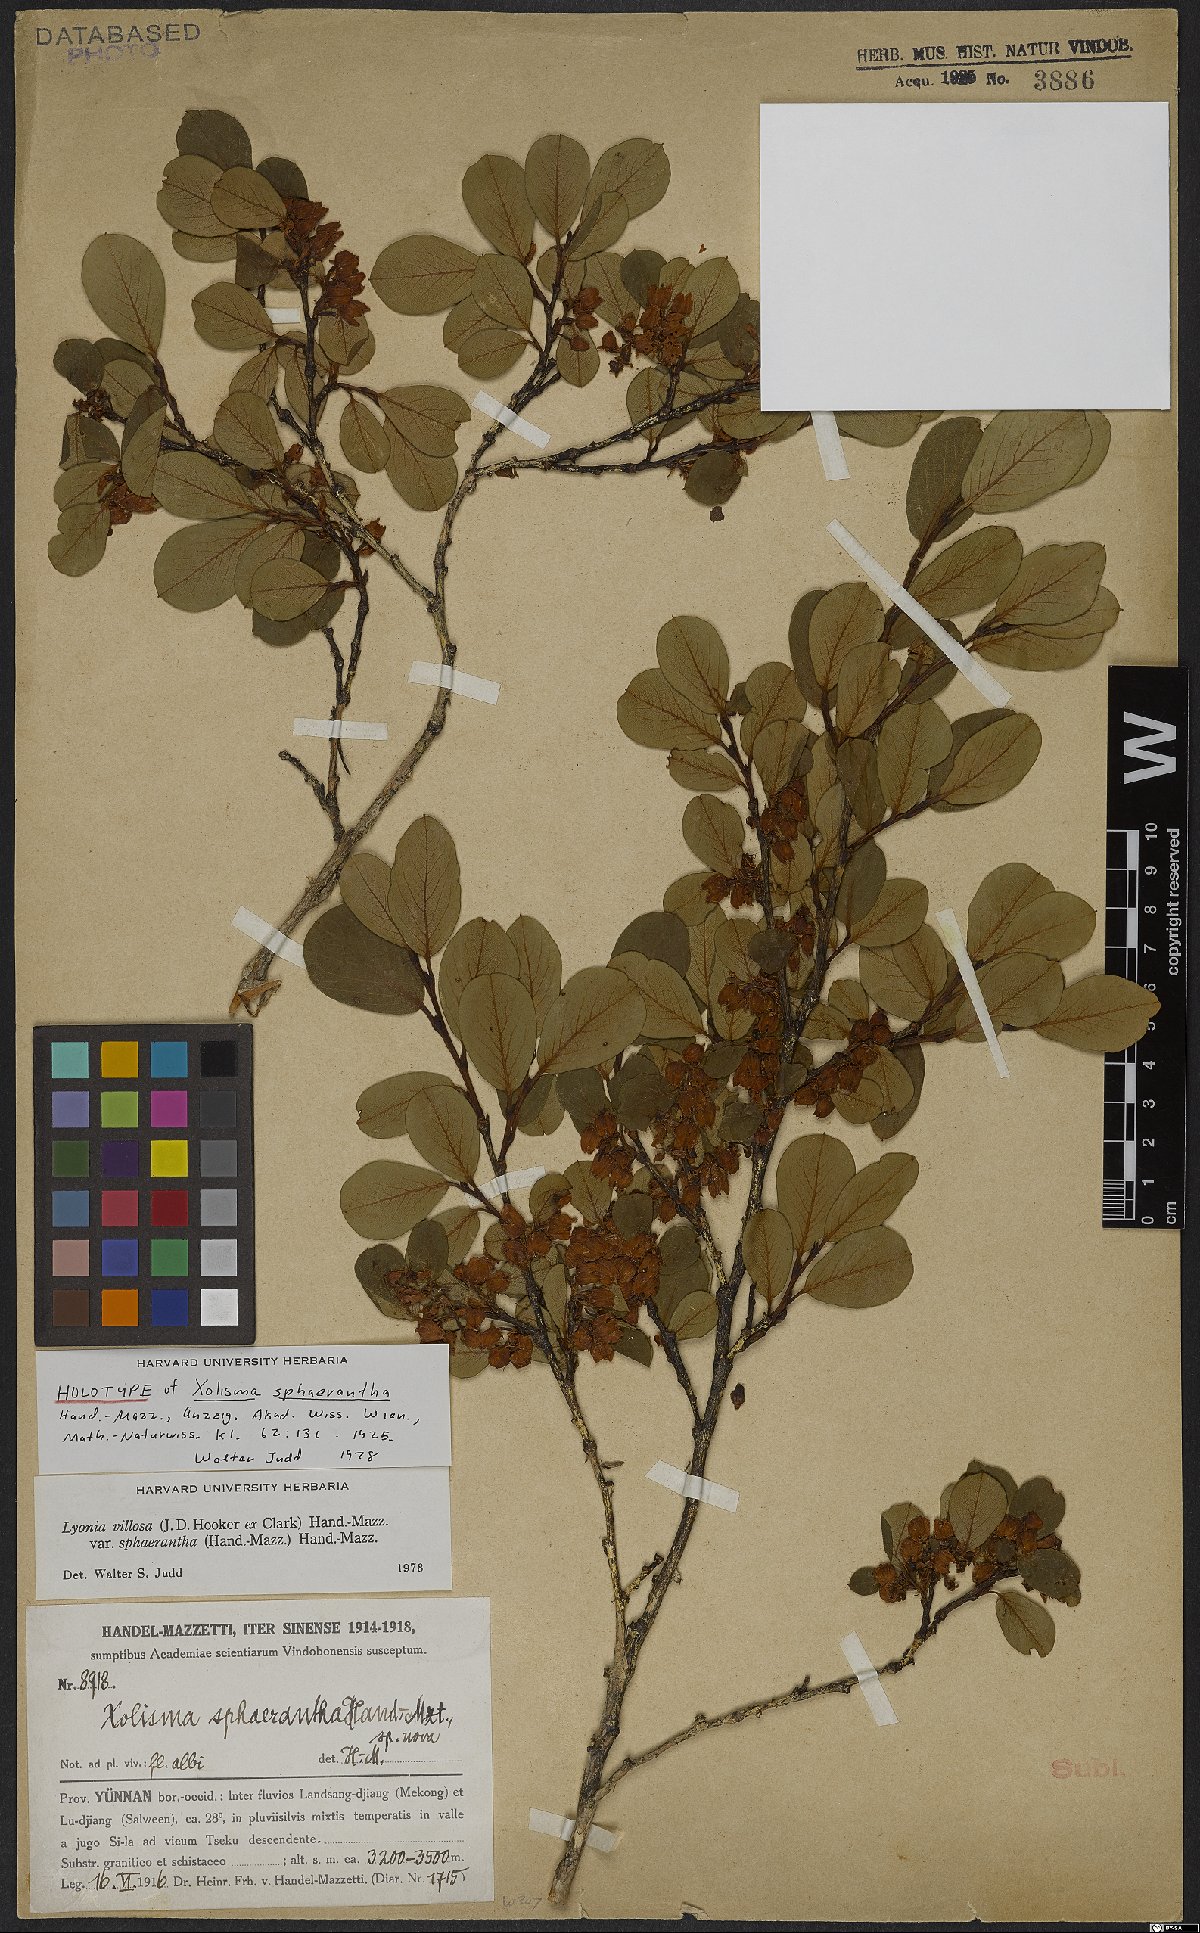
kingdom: Plantae
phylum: Tracheophyta
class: Magnoliopsida
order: Ericales
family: Ericaceae
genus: Lyonia
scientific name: Lyonia villosa
